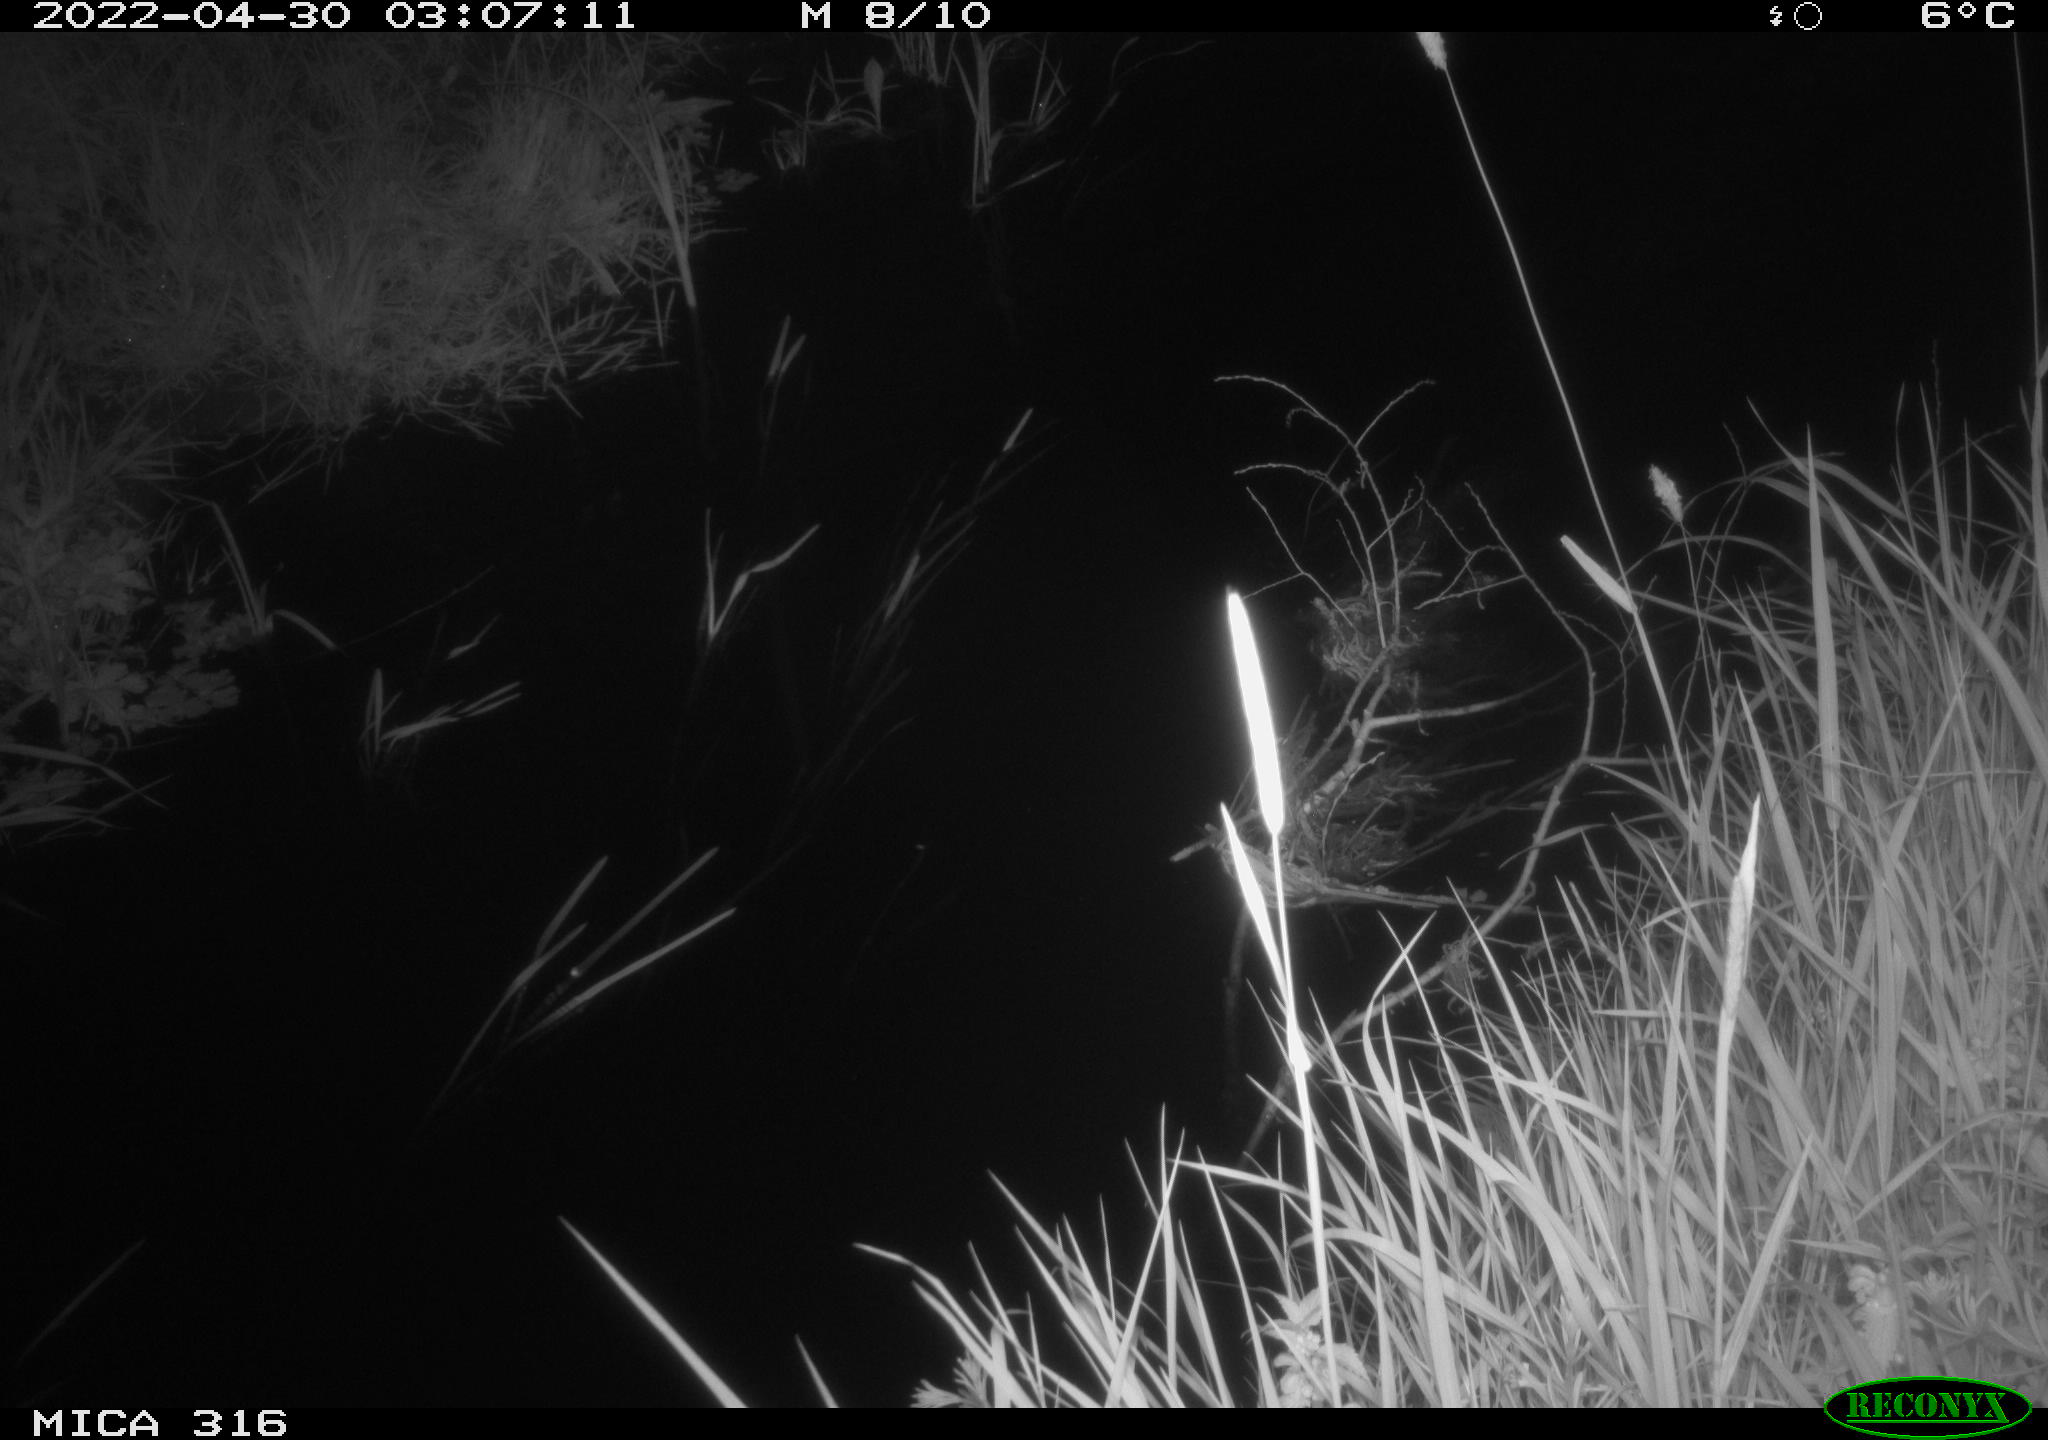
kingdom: Animalia
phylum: Chordata
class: Aves
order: Anseriformes
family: Anatidae
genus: Anas
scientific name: Anas platyrhynchos
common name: Mallard
